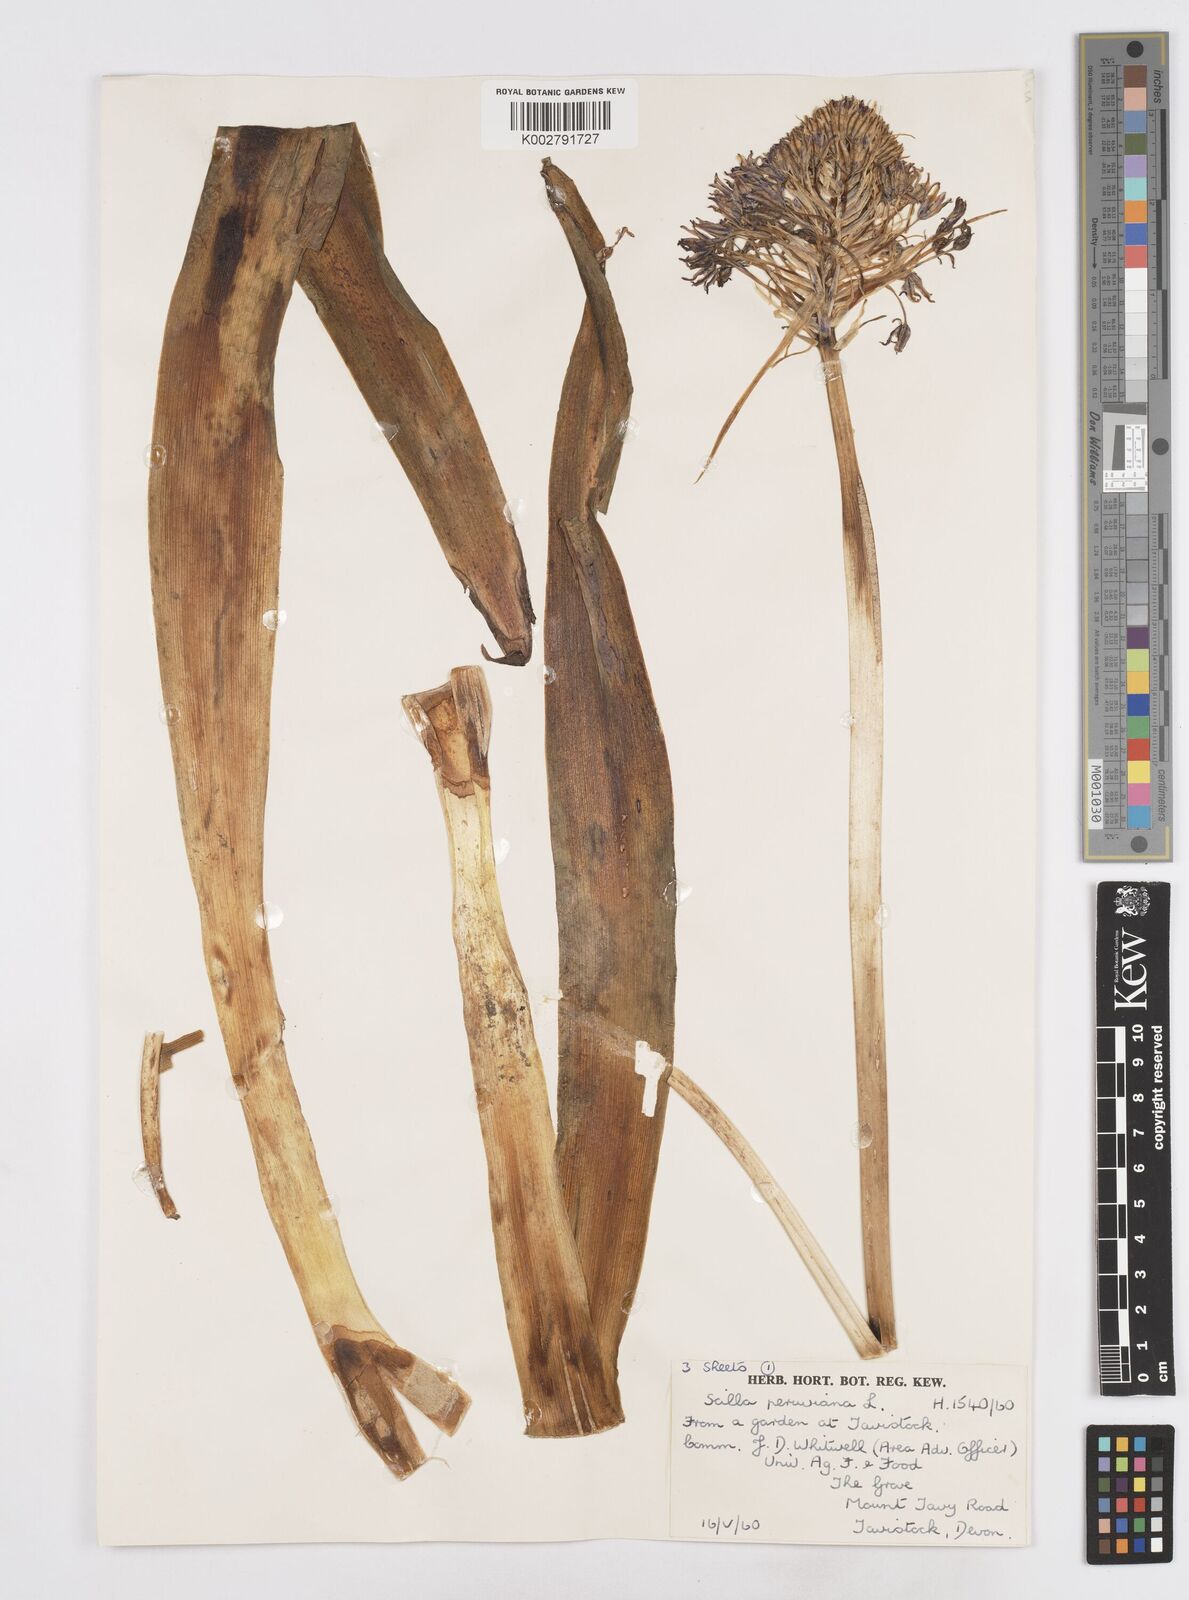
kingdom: Plantae
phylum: Tracheophyta
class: Liliopsida
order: Asparagales
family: Asparagaceae
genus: Scilla
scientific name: Scilla peruviana
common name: Portuguese squill
